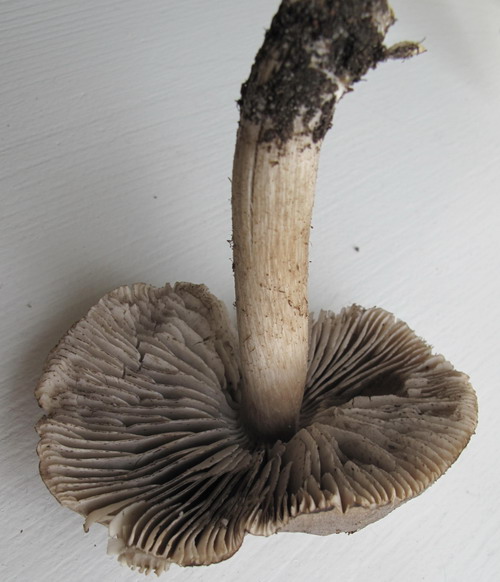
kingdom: Fungi
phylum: Basidiomycota
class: Agaricomycetes
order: Agaricales
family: Tricholomataceae
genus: Tricholoma
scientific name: Tricholoma scalpturatum
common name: gulplettet ridderhat
